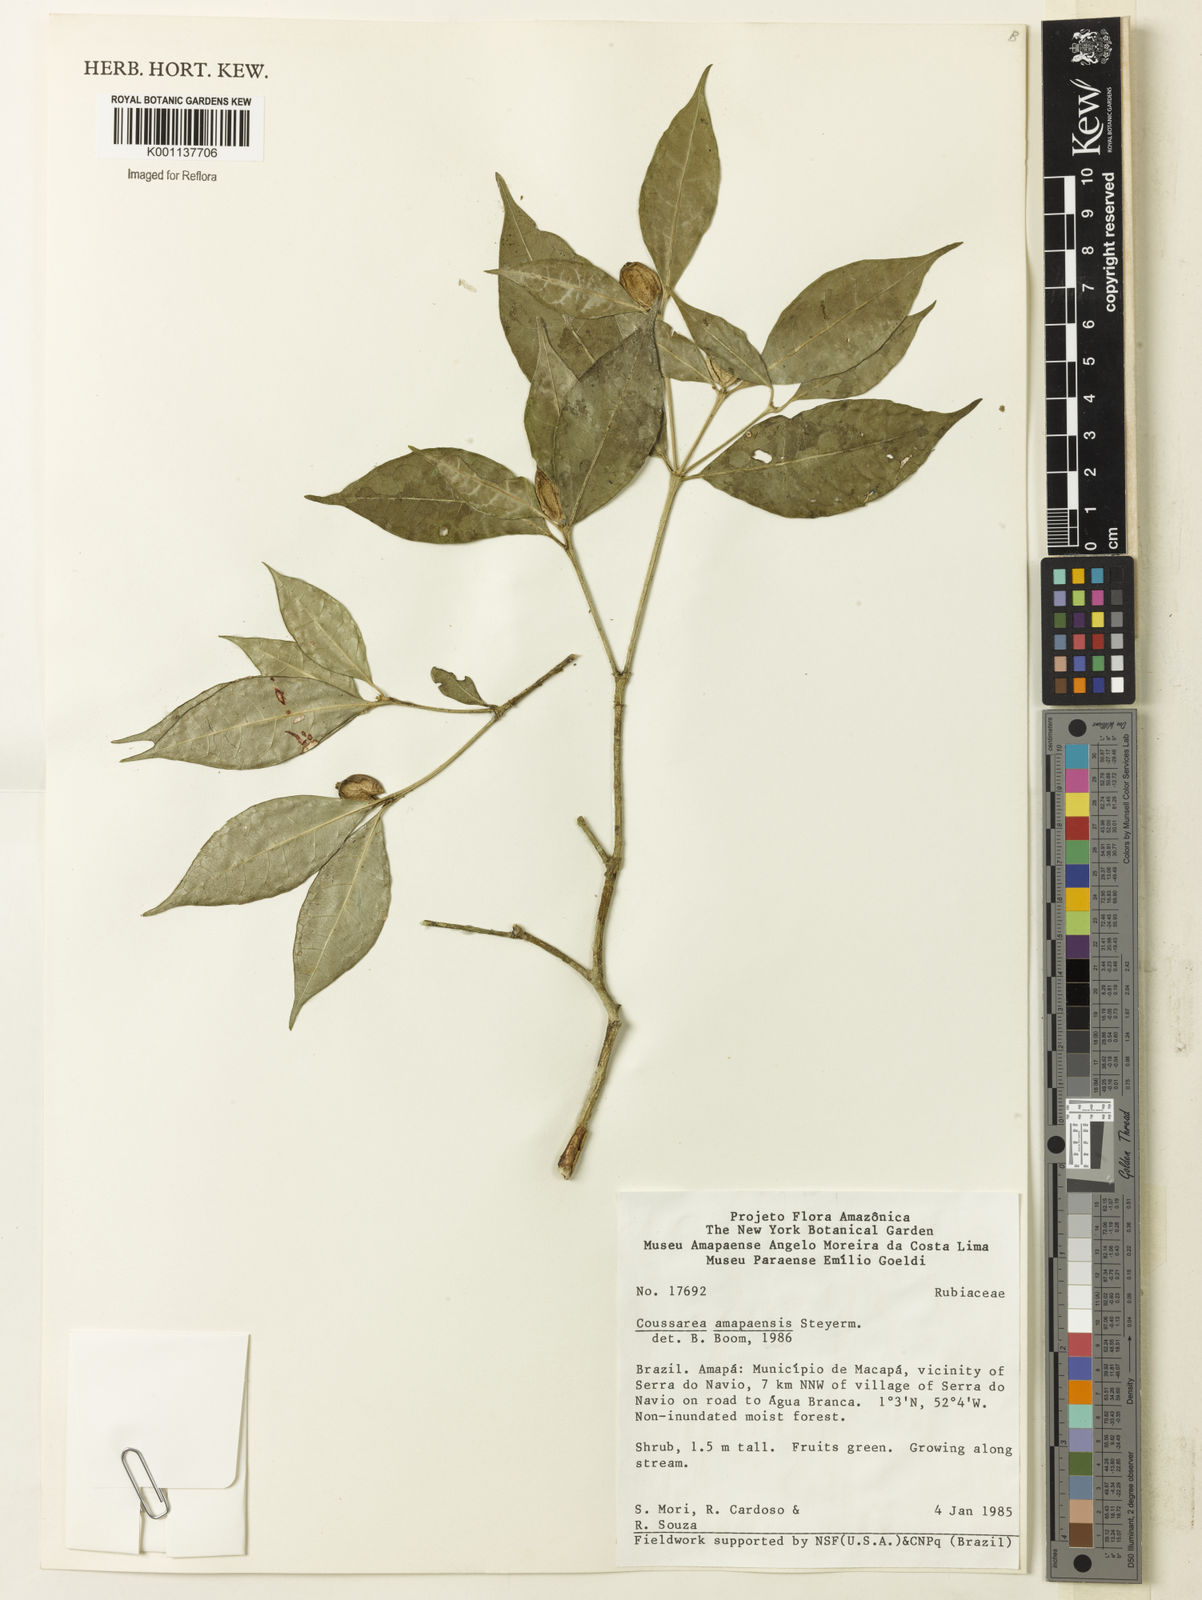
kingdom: Plantae
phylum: Tracheophyta
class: Magnoliopsida
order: Gentianales
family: Rubiaceae
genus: Coussarea
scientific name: Coussarea amapaensis
